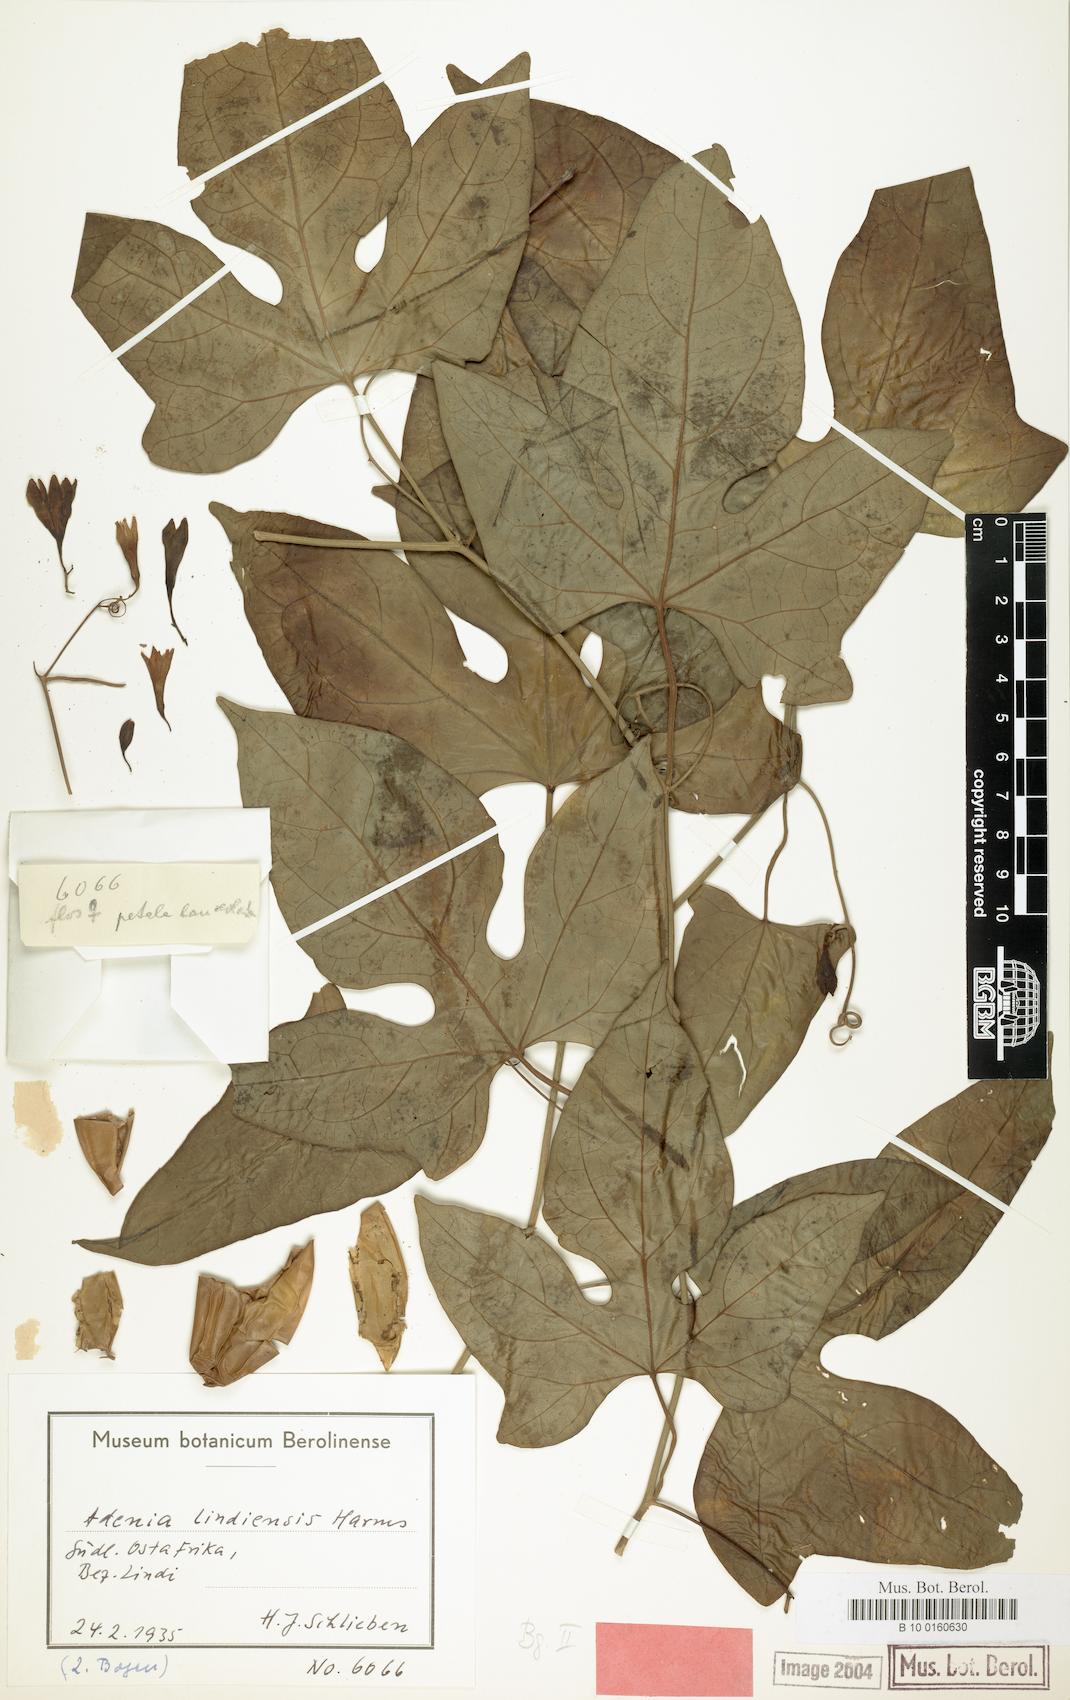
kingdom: Plantae
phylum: Tracheophyta
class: Magnoliopsida
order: Malpighiales
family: Passifloraceae
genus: Adenia
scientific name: Adenia lindiensis
